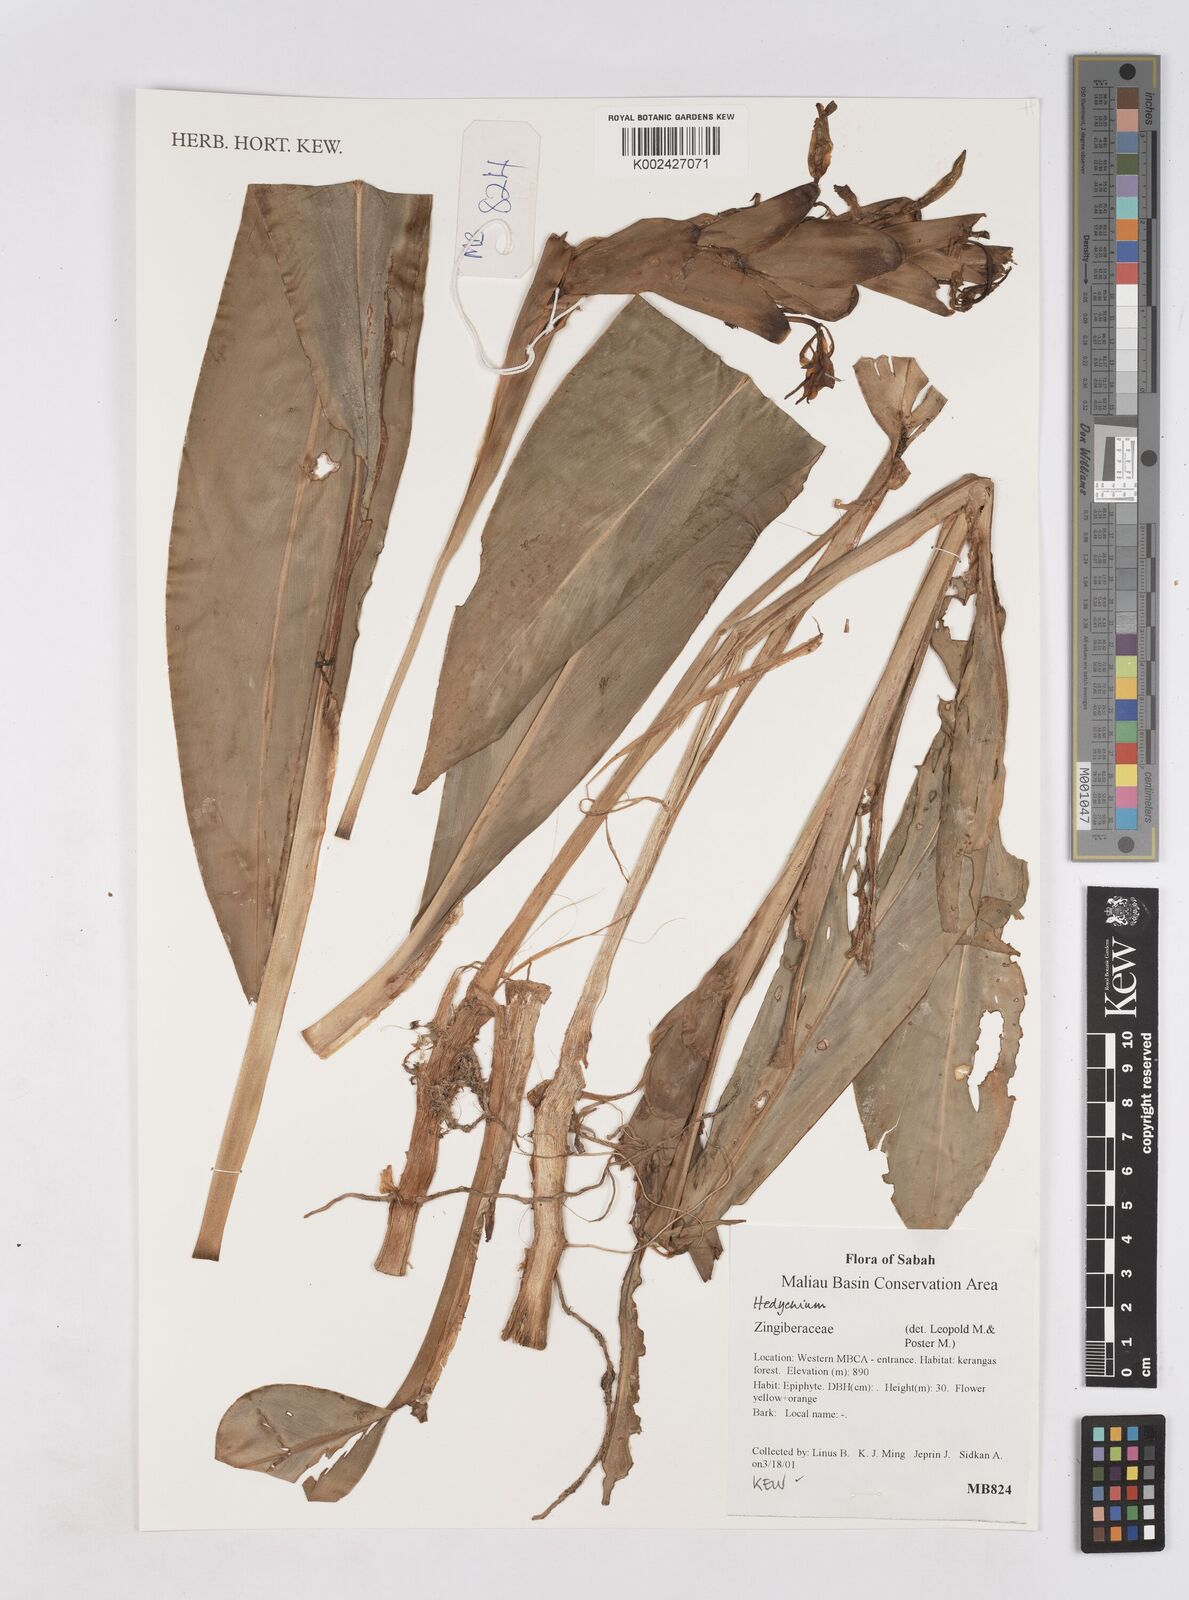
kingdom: Plantae
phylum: Tracheophyta
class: Liliopsida
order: Zingiberales
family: Zingiberaceae
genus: Hedychium
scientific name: Hedychium
